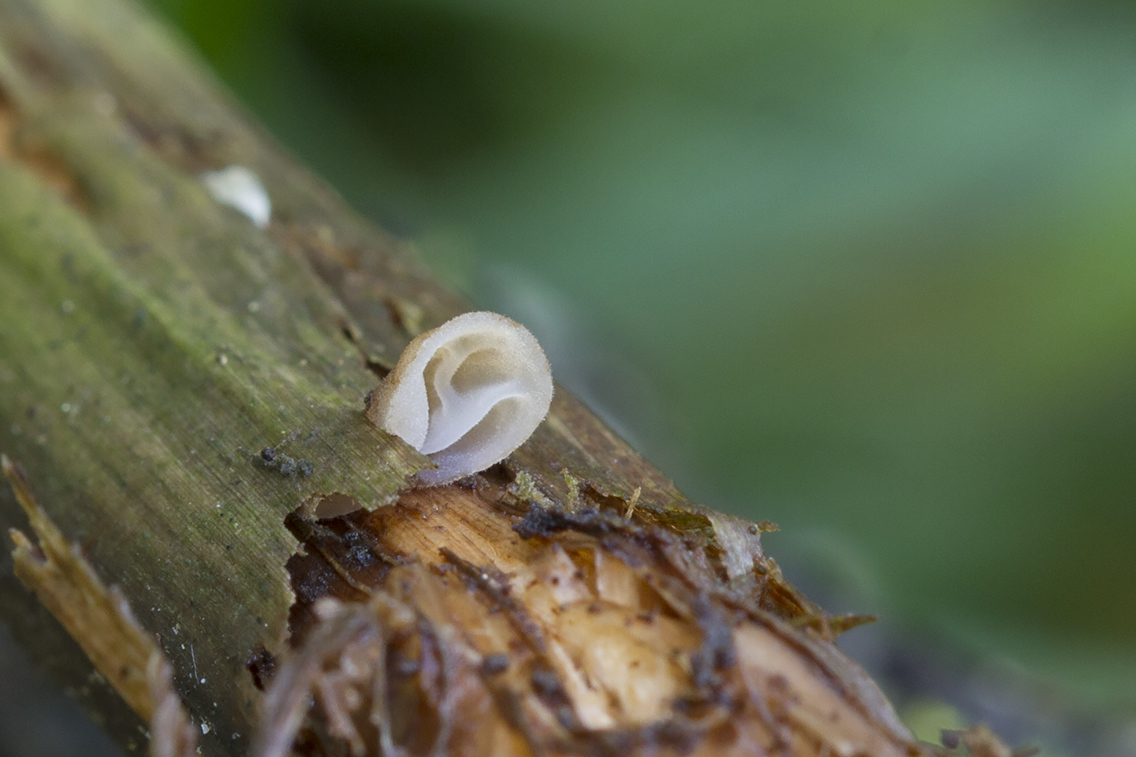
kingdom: Fungi
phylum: Basidiomycota
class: Agaricomycetes
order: Agaricales
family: Physalacriaceae
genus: Gloiocephala
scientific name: Gloiocephala menieri
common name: dunhammer-spatelhat
